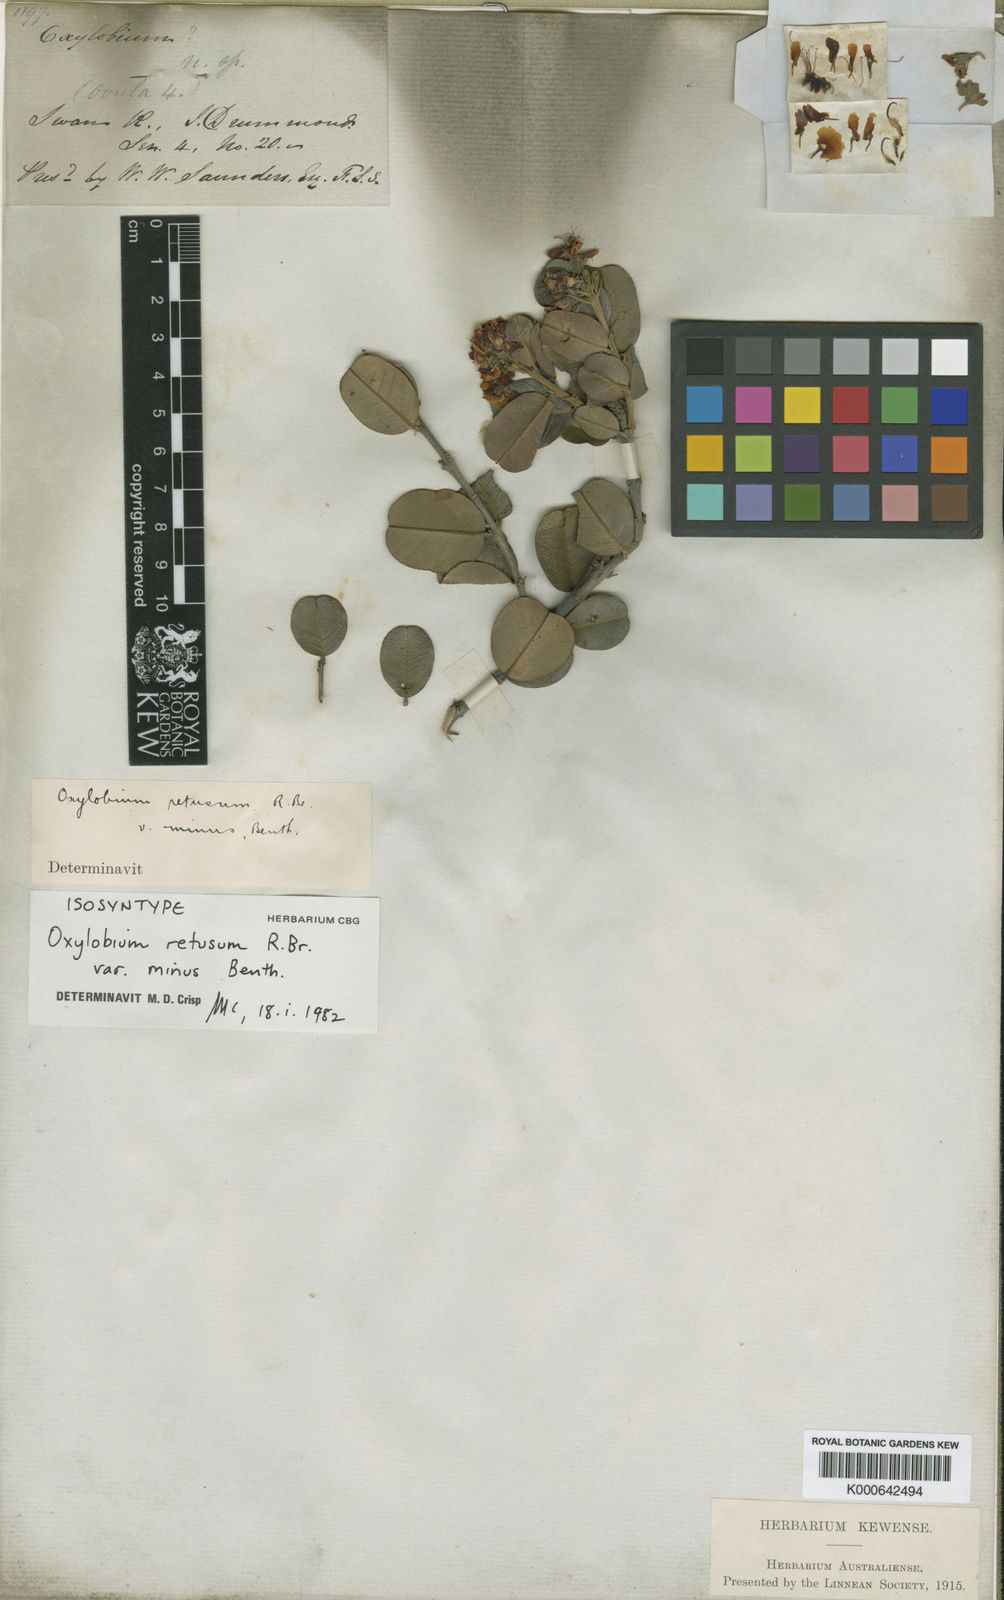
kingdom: Plantae
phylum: Tracheophyta
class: Magnoliopsida
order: Fabales
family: Fabaceae
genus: Gastrolobium
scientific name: Gastrolobium congestum
